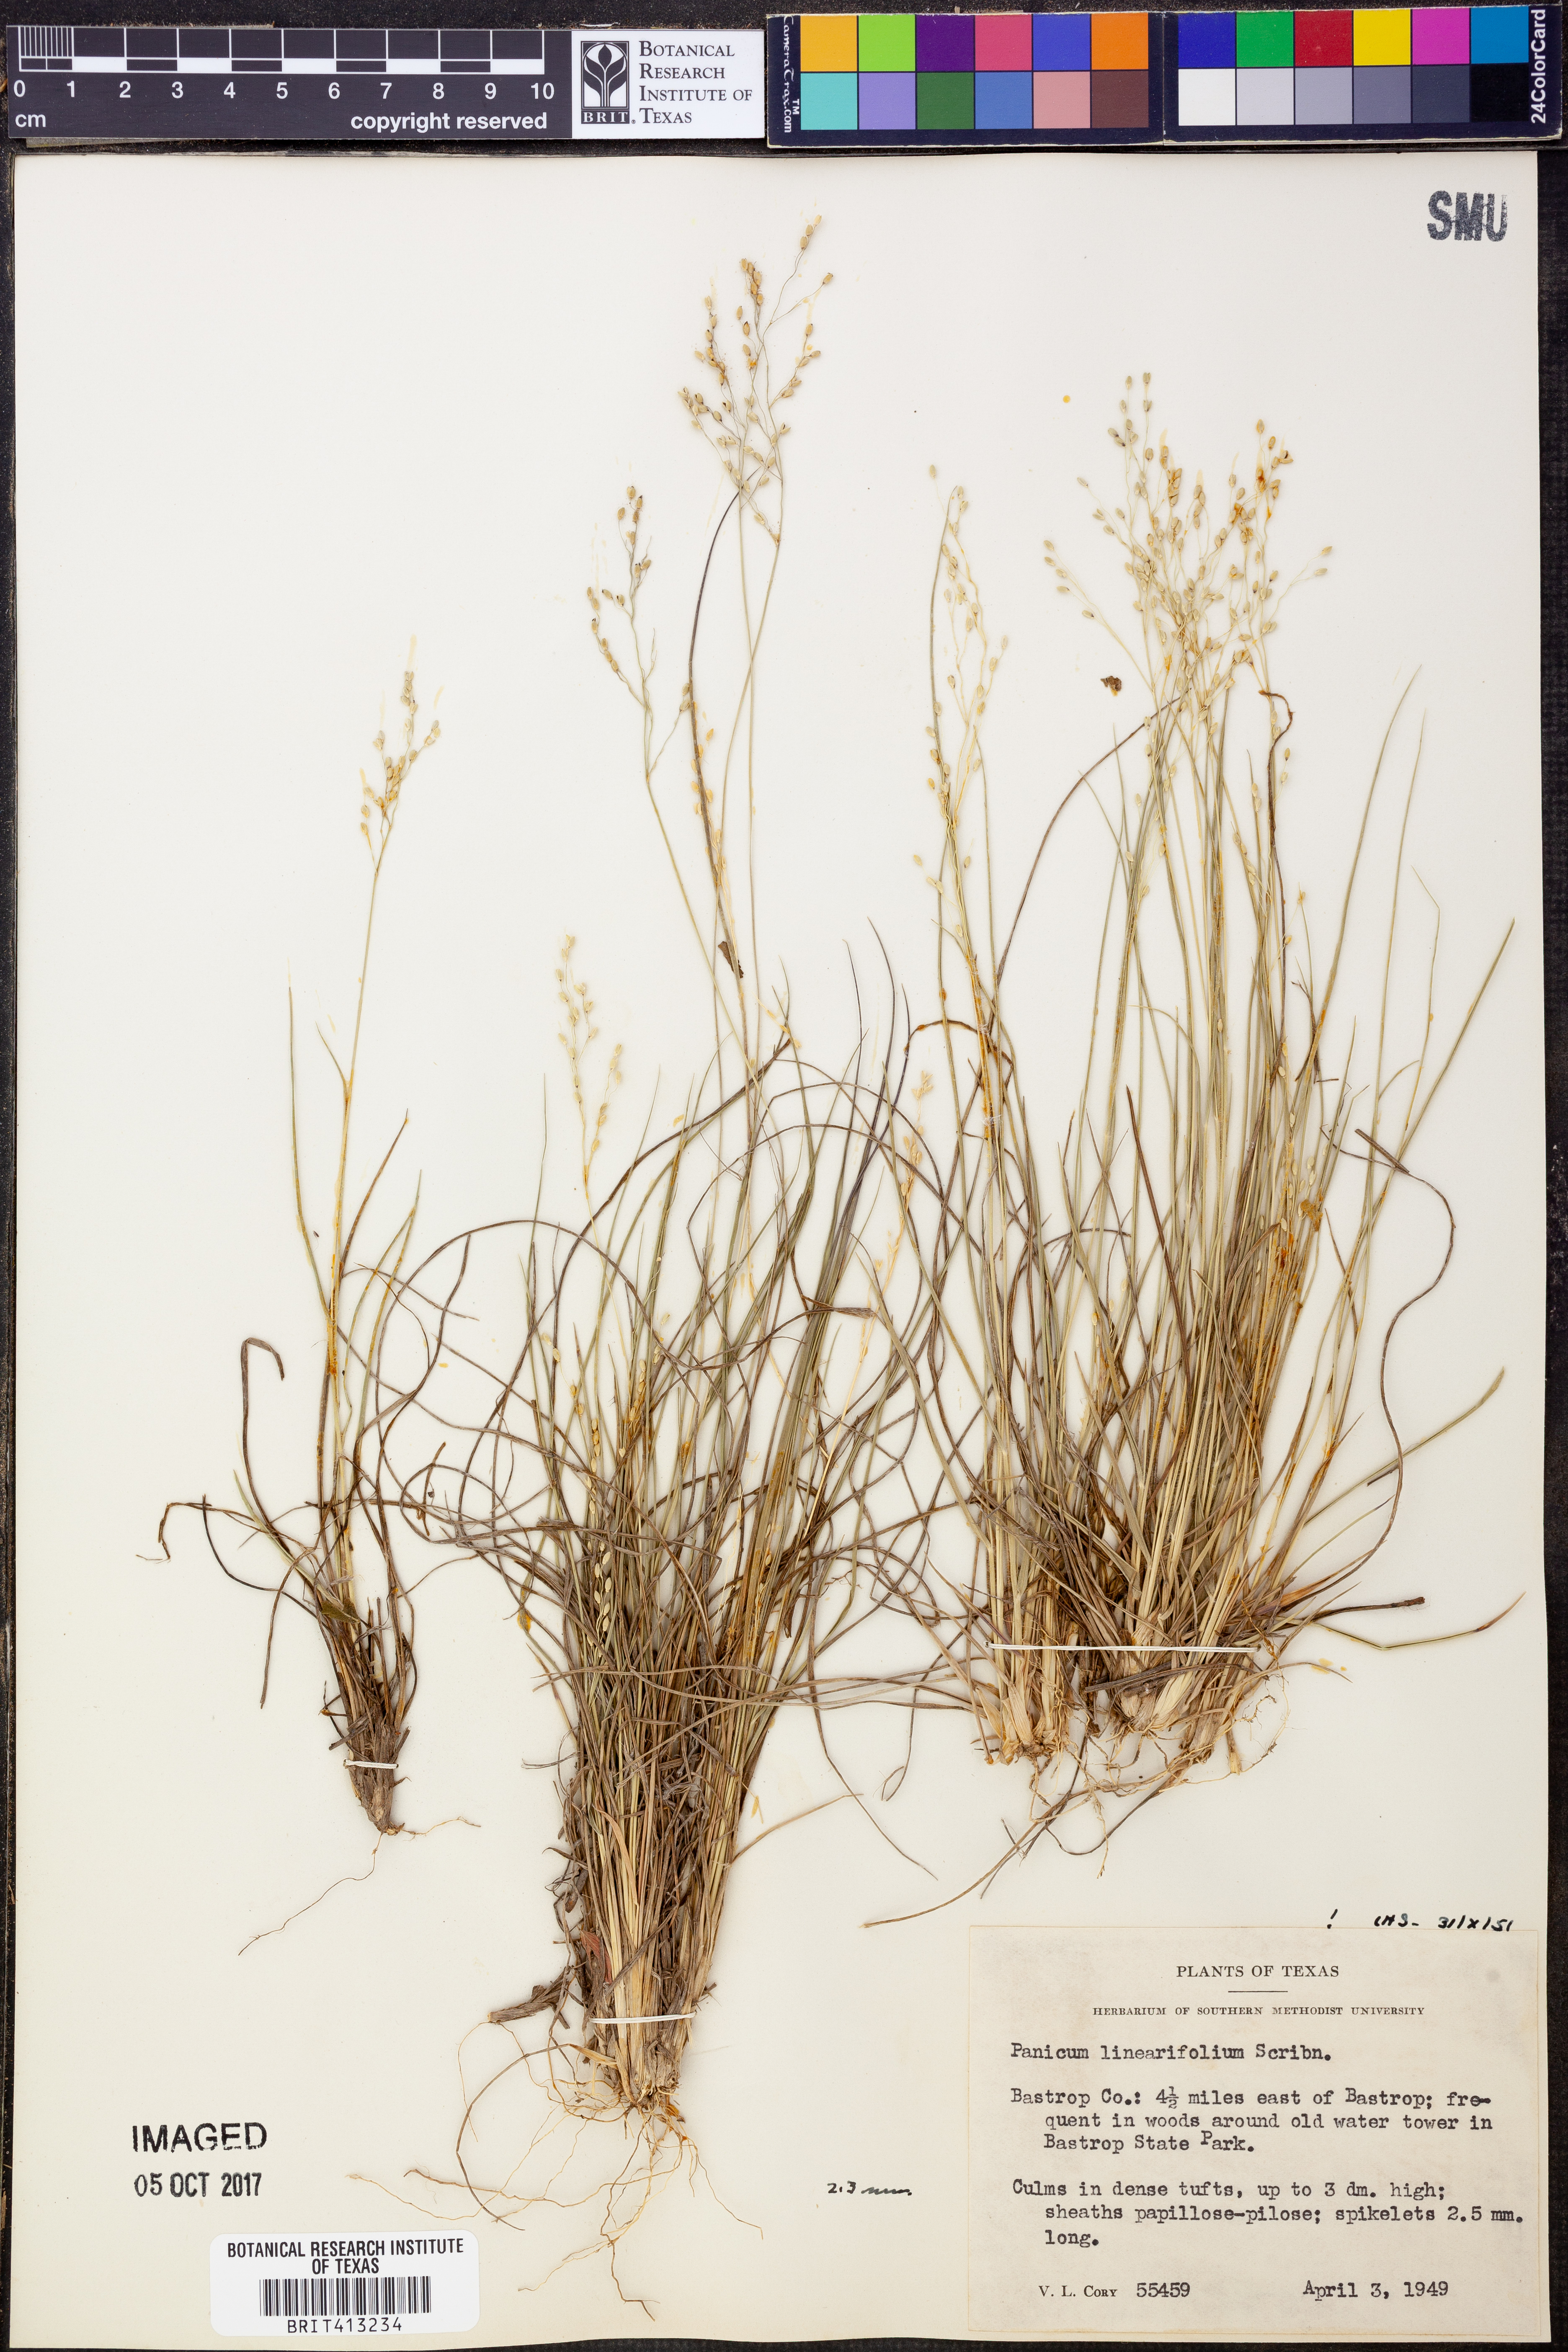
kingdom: Plantae
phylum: Tracheophyta
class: Liliopsida
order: Poales
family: Poaceae
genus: Dichanthelium
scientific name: Dichanthelium linearifolium
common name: Linear-leaved panicgrass
